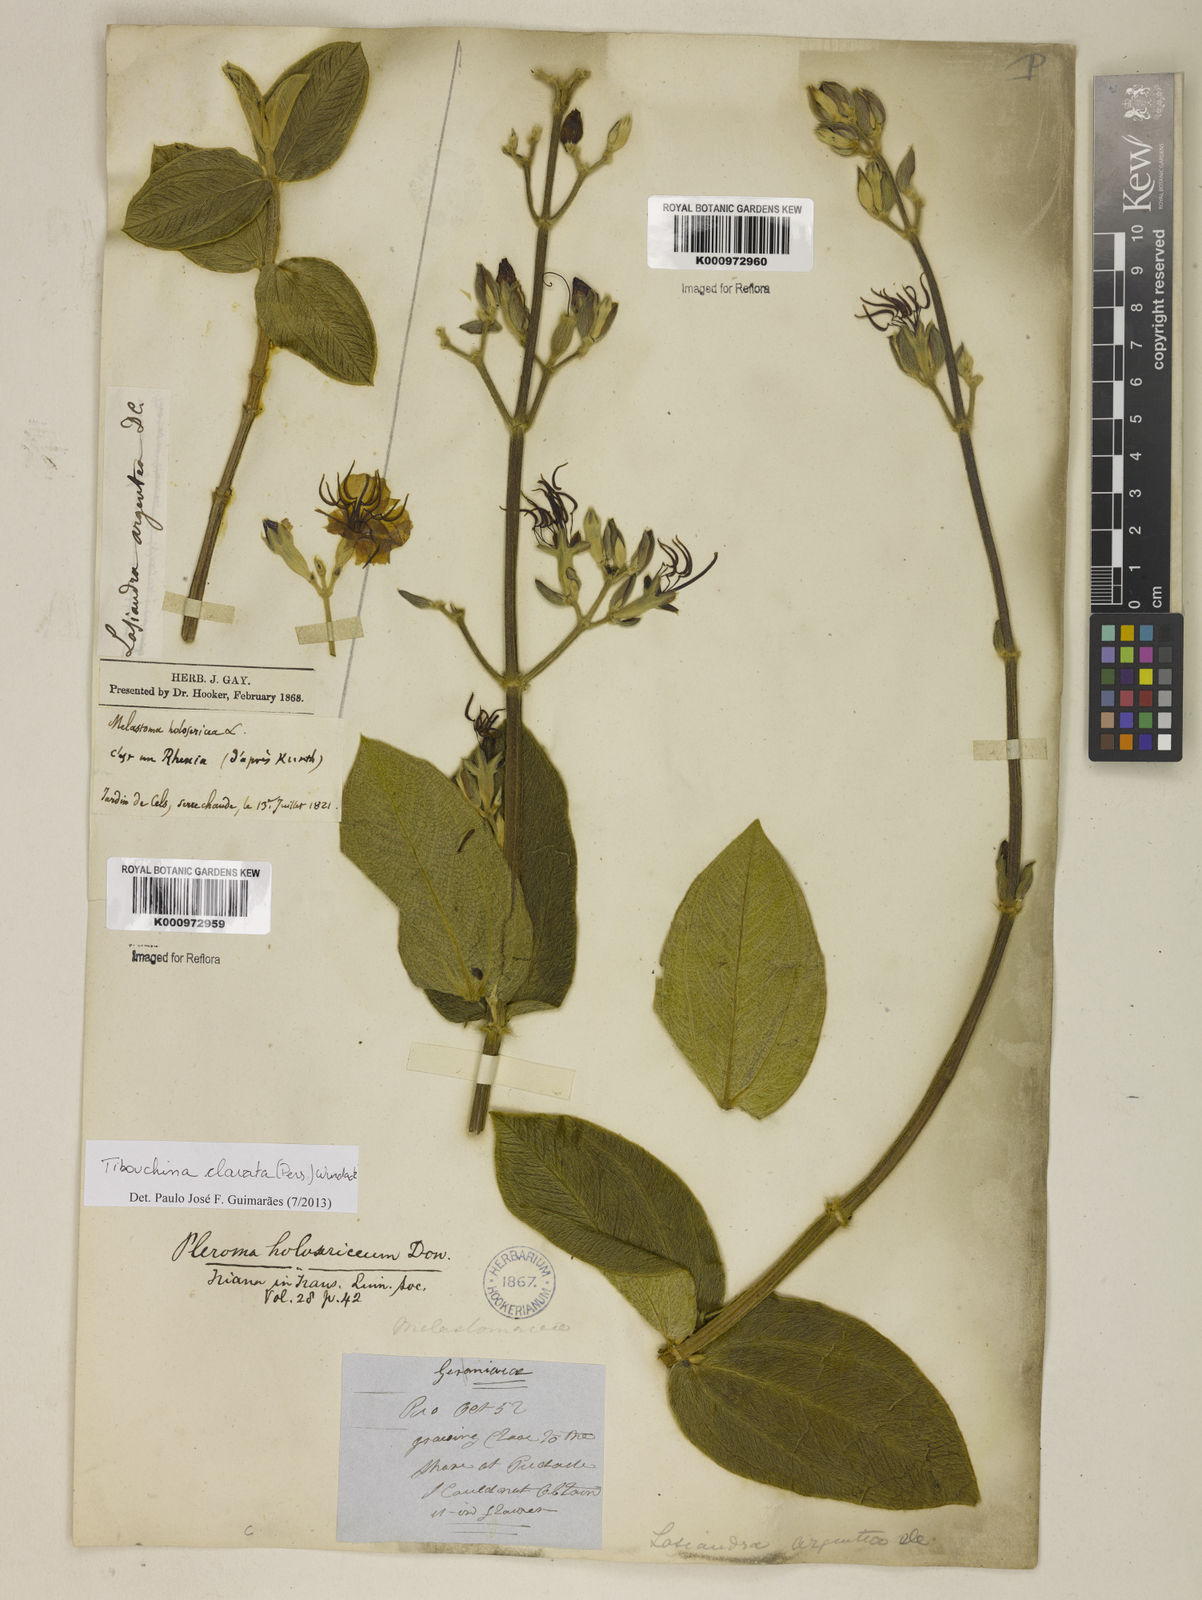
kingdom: Plantae
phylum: Tracheophyta
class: Magnoliopsida
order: Myrtales
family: Melastomataceae
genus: Pleroma
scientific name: Pleroma clavatum
